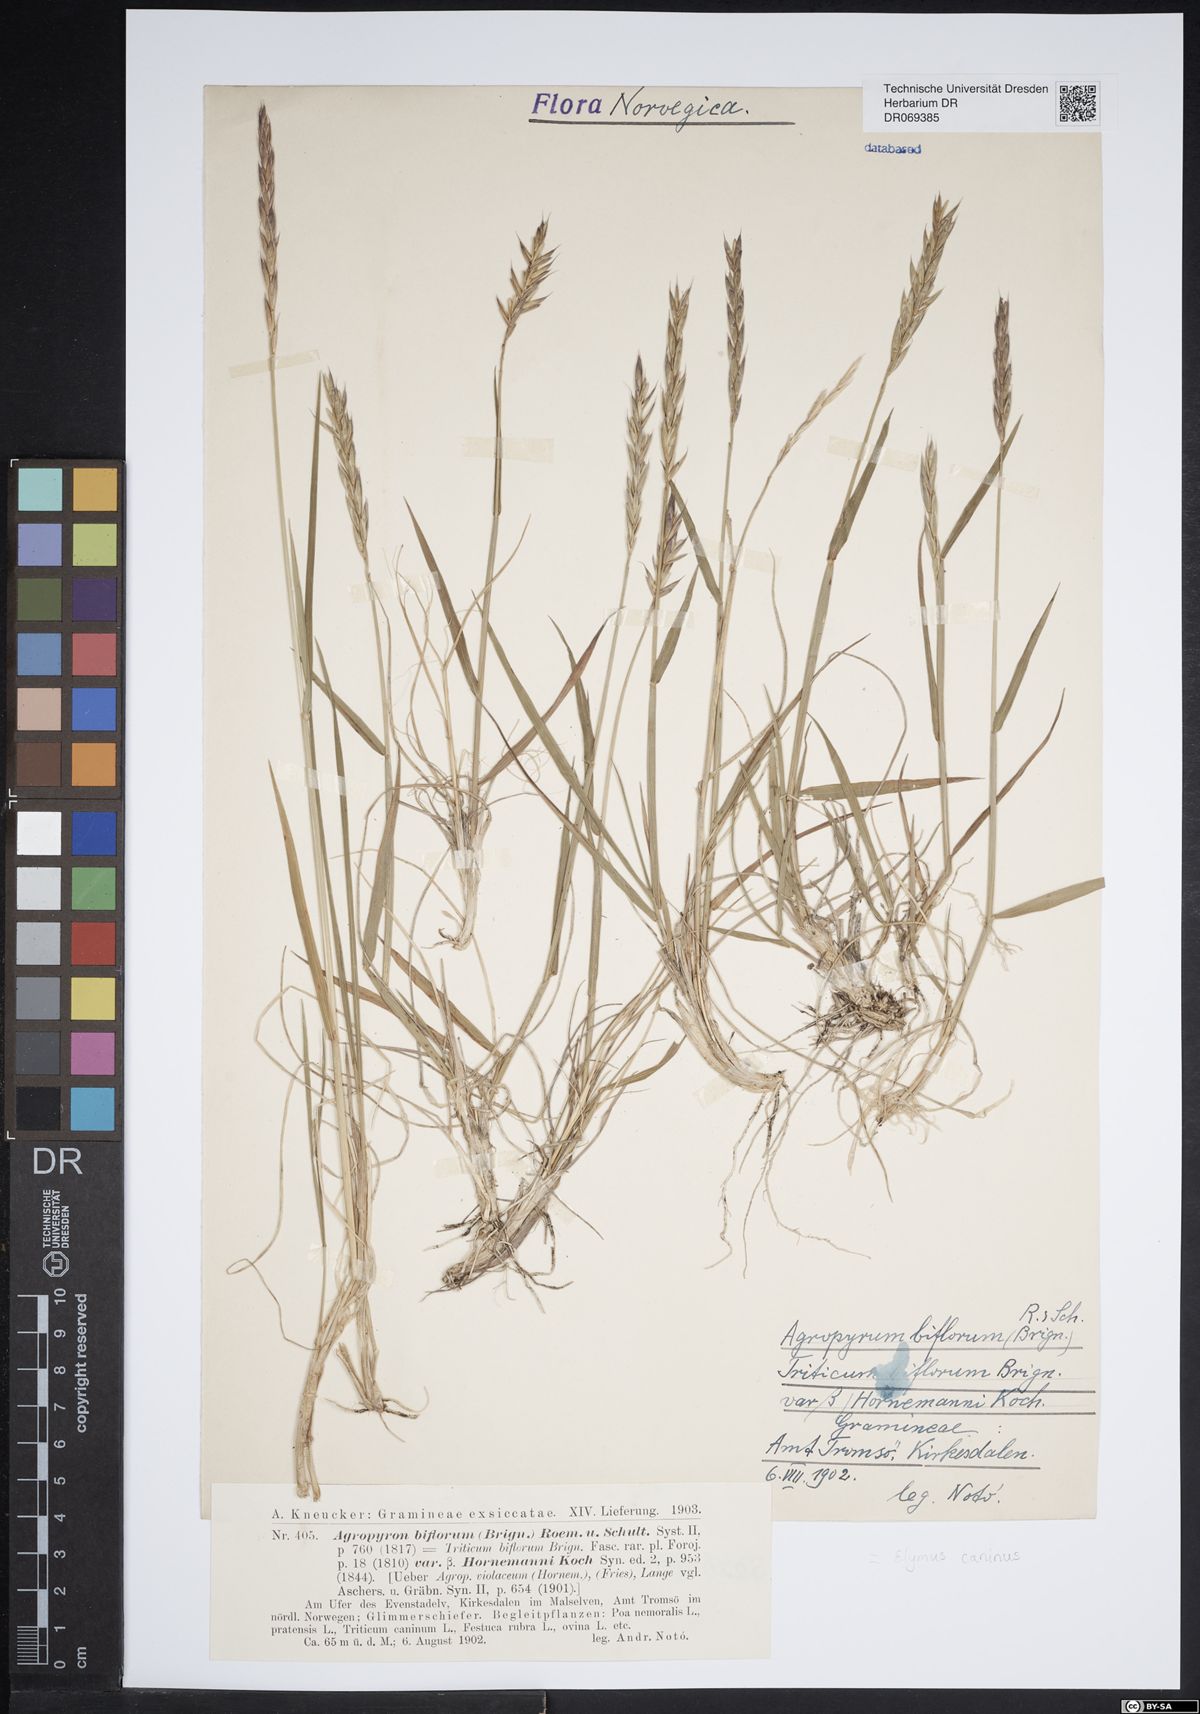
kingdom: Plantae
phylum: Tracheophyta
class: Liliopsida
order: Poales
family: Poaceae
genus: Elymus
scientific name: Elymus caninus
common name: Bearded couch
